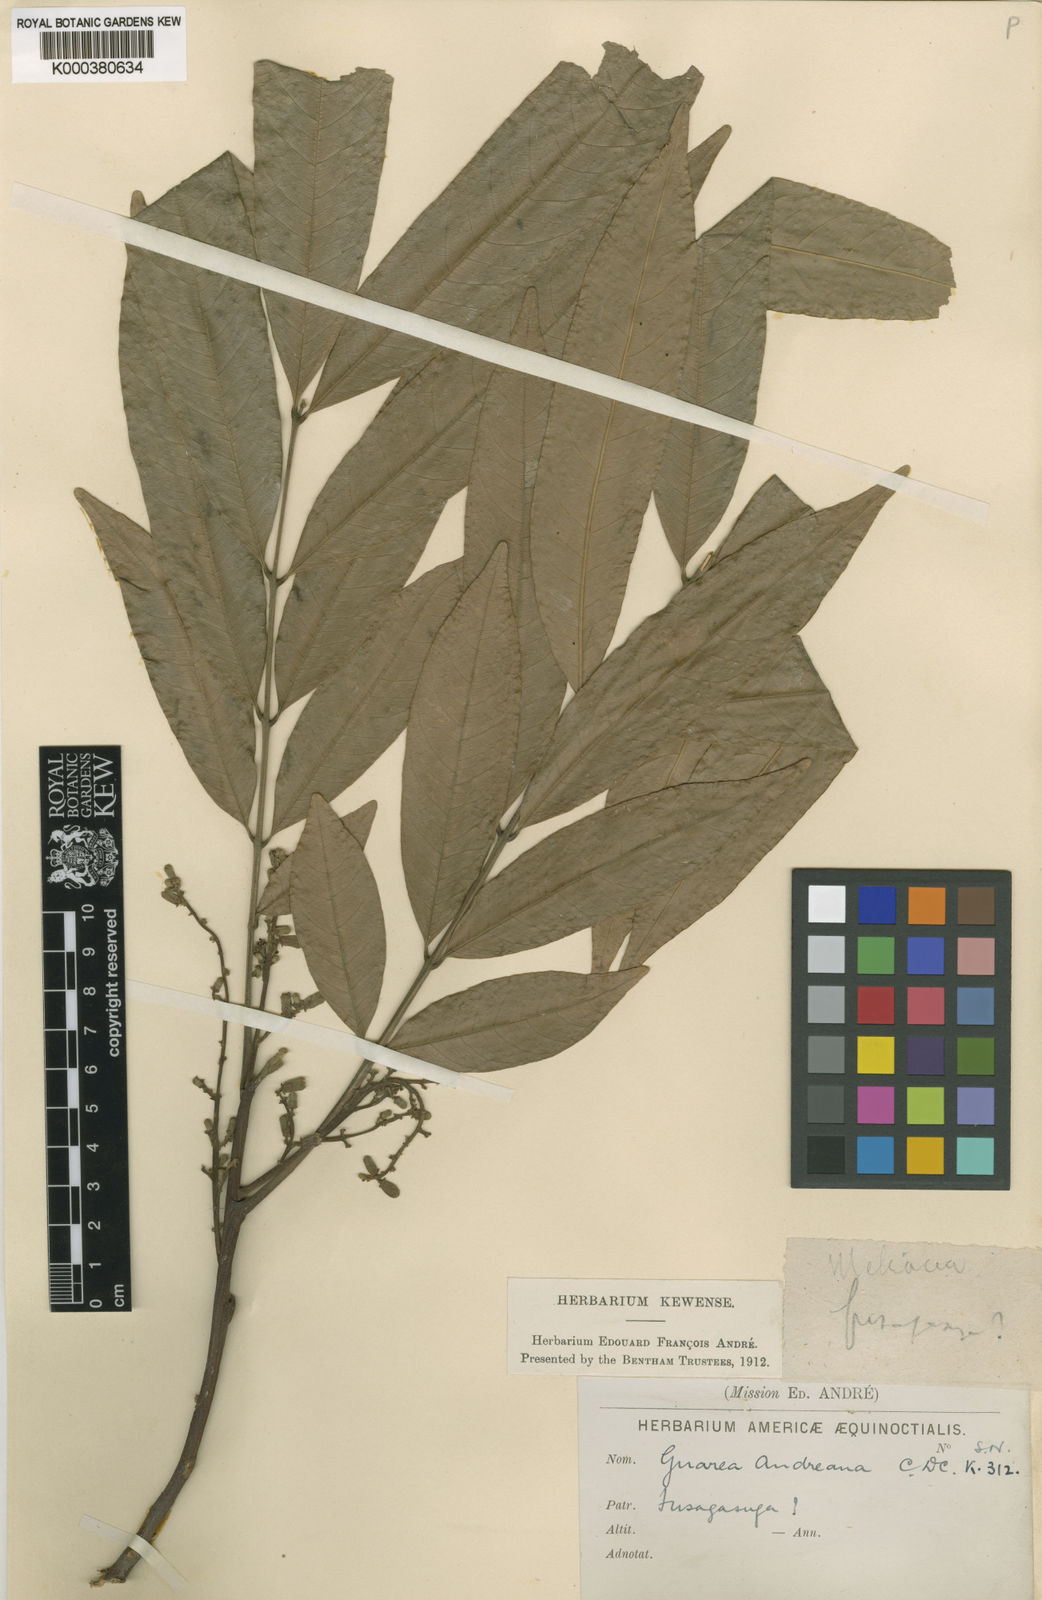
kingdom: Plantae
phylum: Tracheophyta
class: Magnoliopsida
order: Sapindales
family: Meliaceae
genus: Guarea
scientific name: Guarea guidonia
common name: American muskwood
